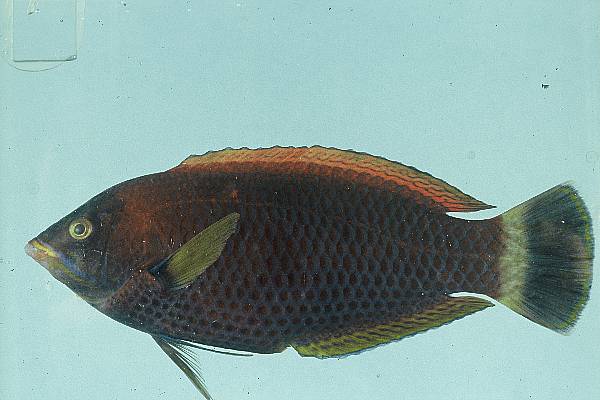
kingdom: Animalia
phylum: Chordata
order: Perciformes
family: Labridae
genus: Pseudodax
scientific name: Pseudodax moluccanus
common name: Chiseltooth wrasse
